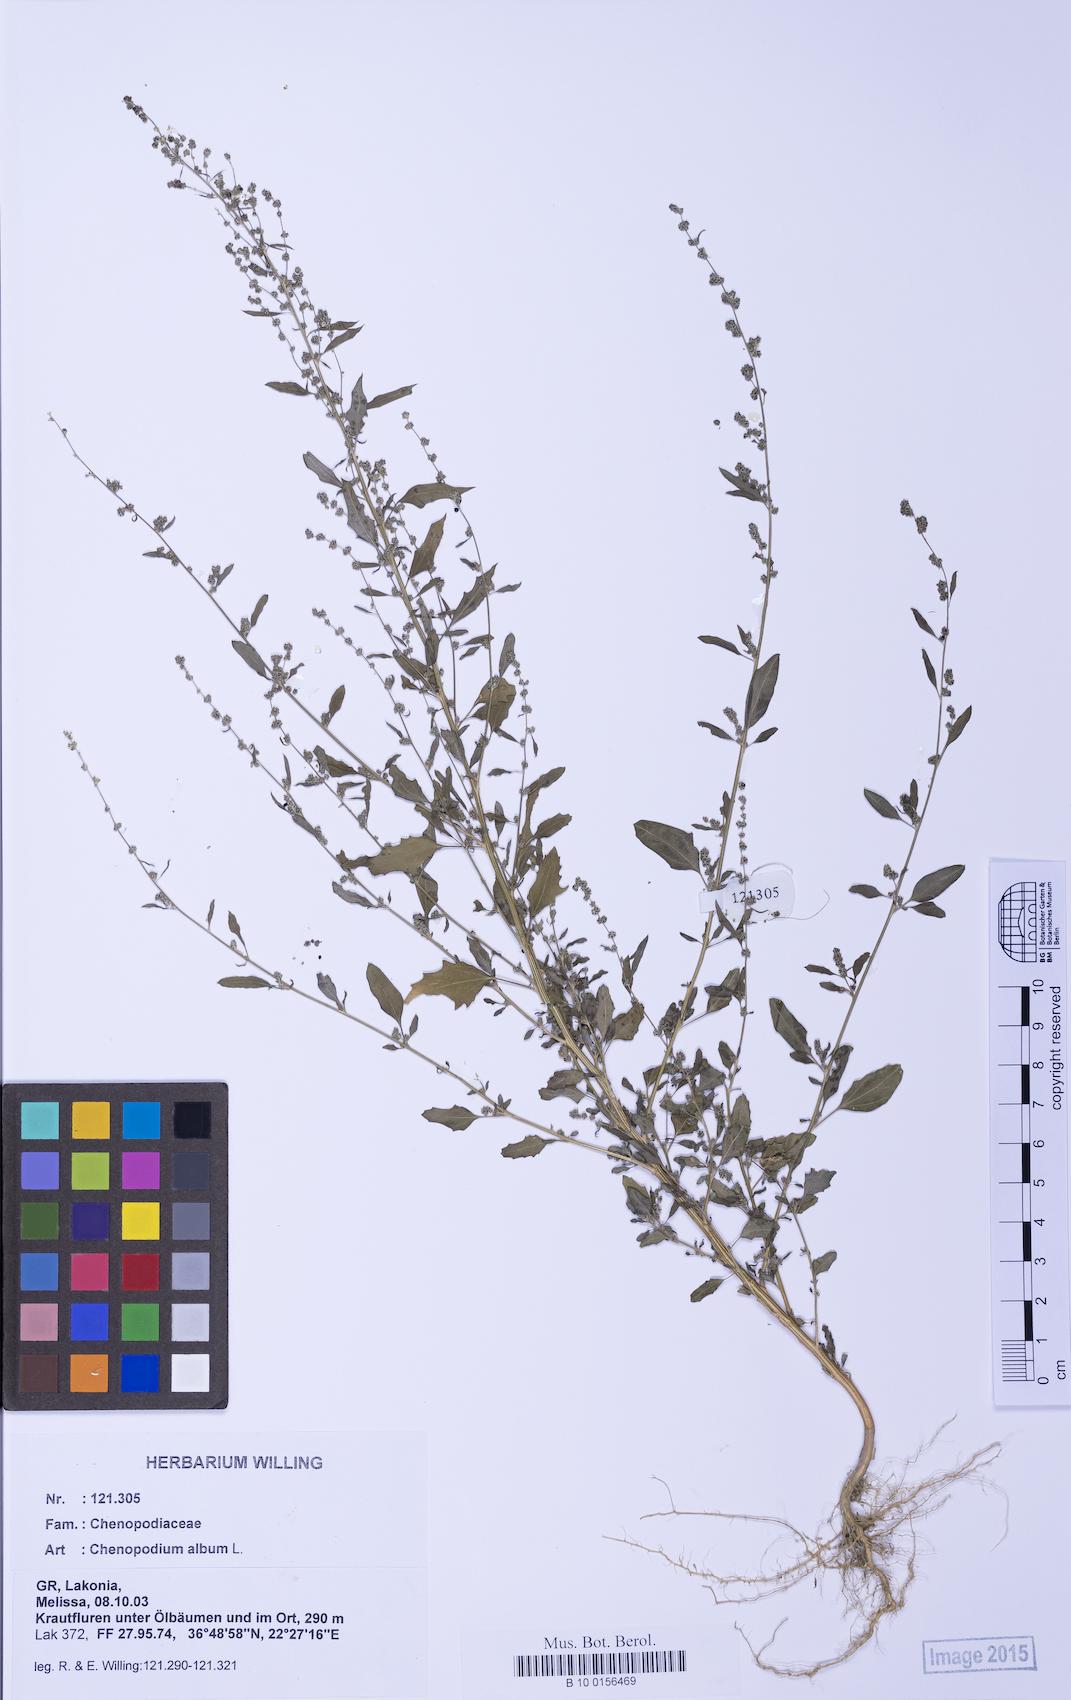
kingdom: Plantae
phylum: Tracheophyta
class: Magnoliopsida
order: Caryophyllales
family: Amaranthaceae
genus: Chenopodium
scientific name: Chenopodium album
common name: Fat-hen
